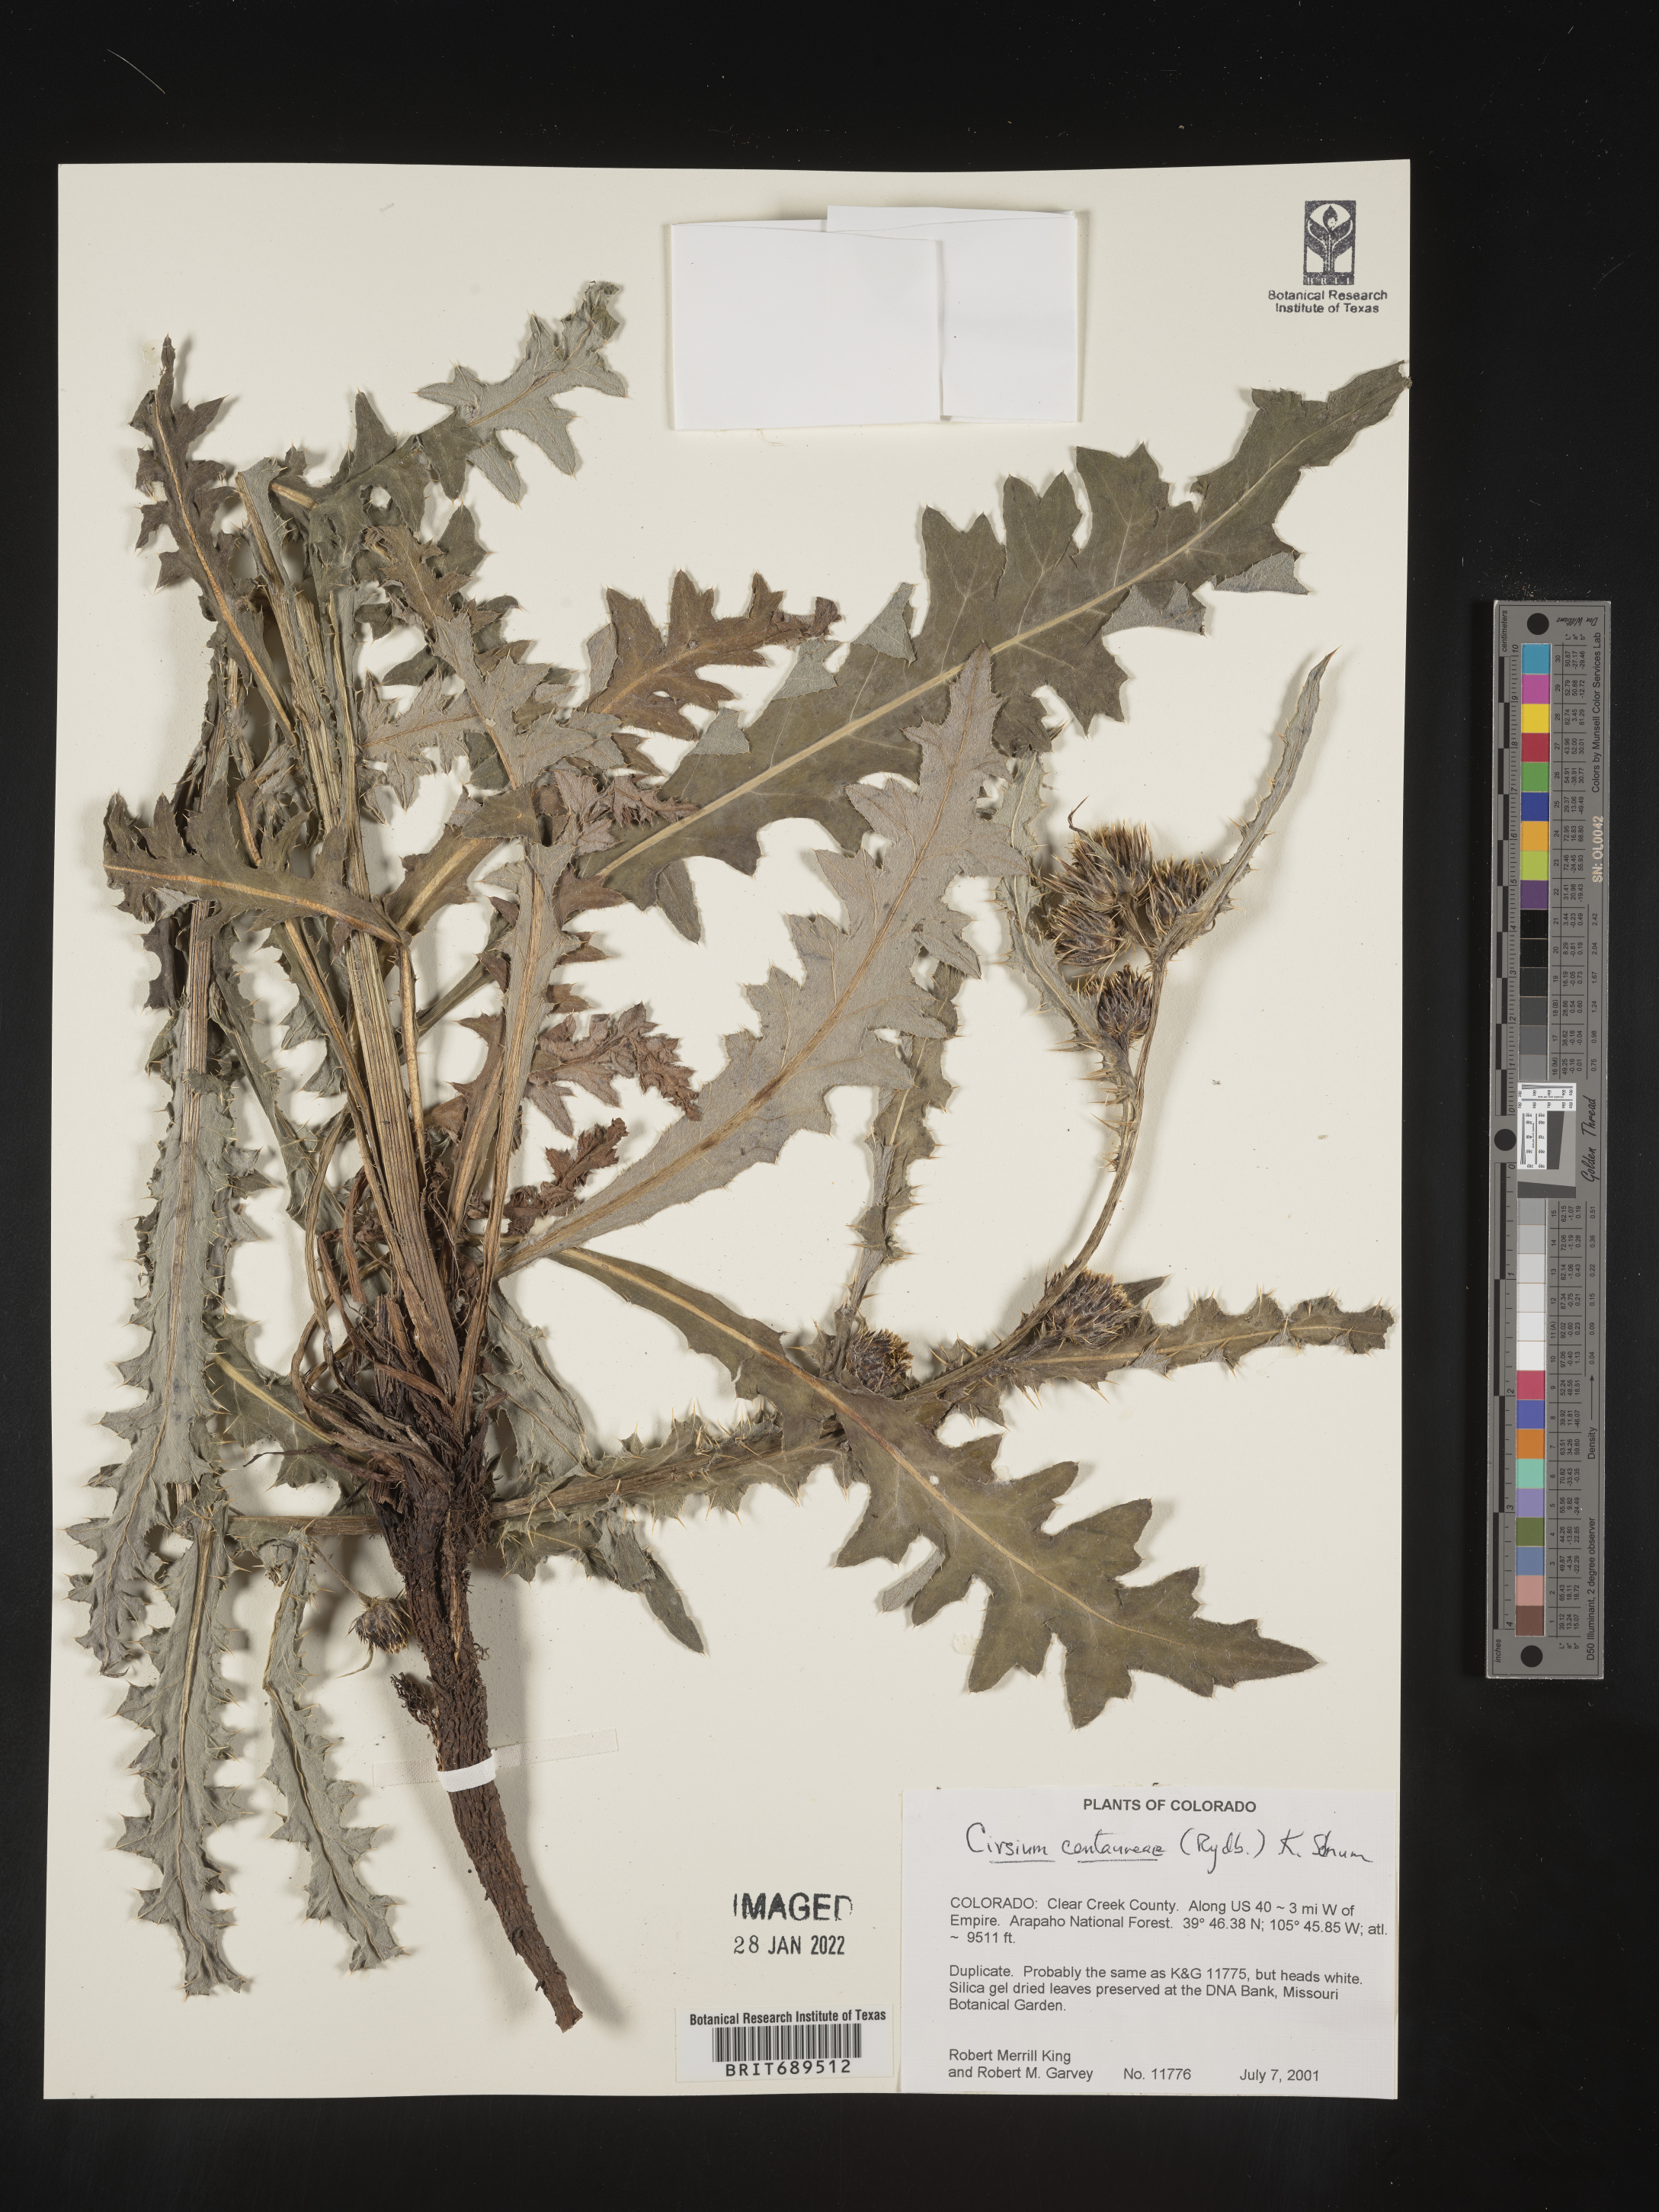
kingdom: Plantae
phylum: Tracheophyta
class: Magnoliopsida
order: Asterales
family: Asteraceae
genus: Cirsium
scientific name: Cirsium centaureae
